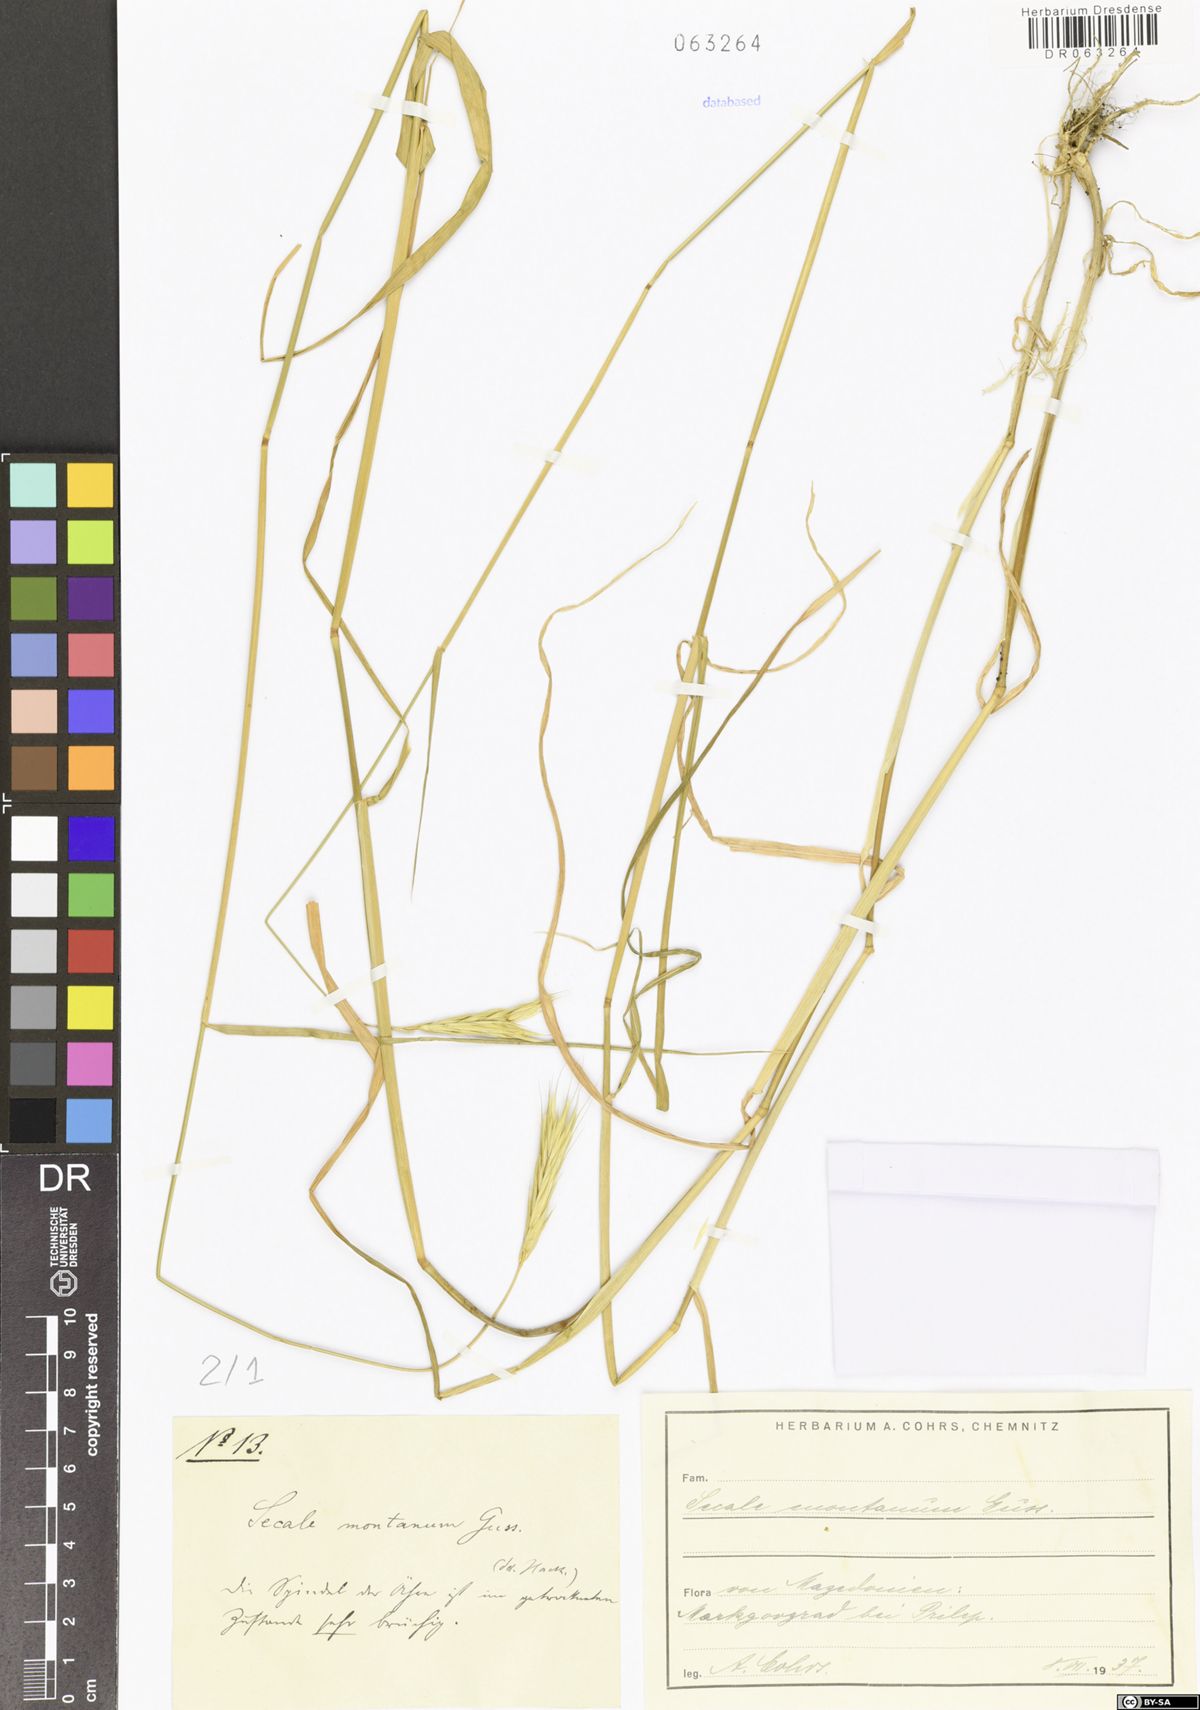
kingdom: Plantae
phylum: Tracheophyta
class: Liliopsida
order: Poales
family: Poaceae
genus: Secale
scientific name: Secale strictum
